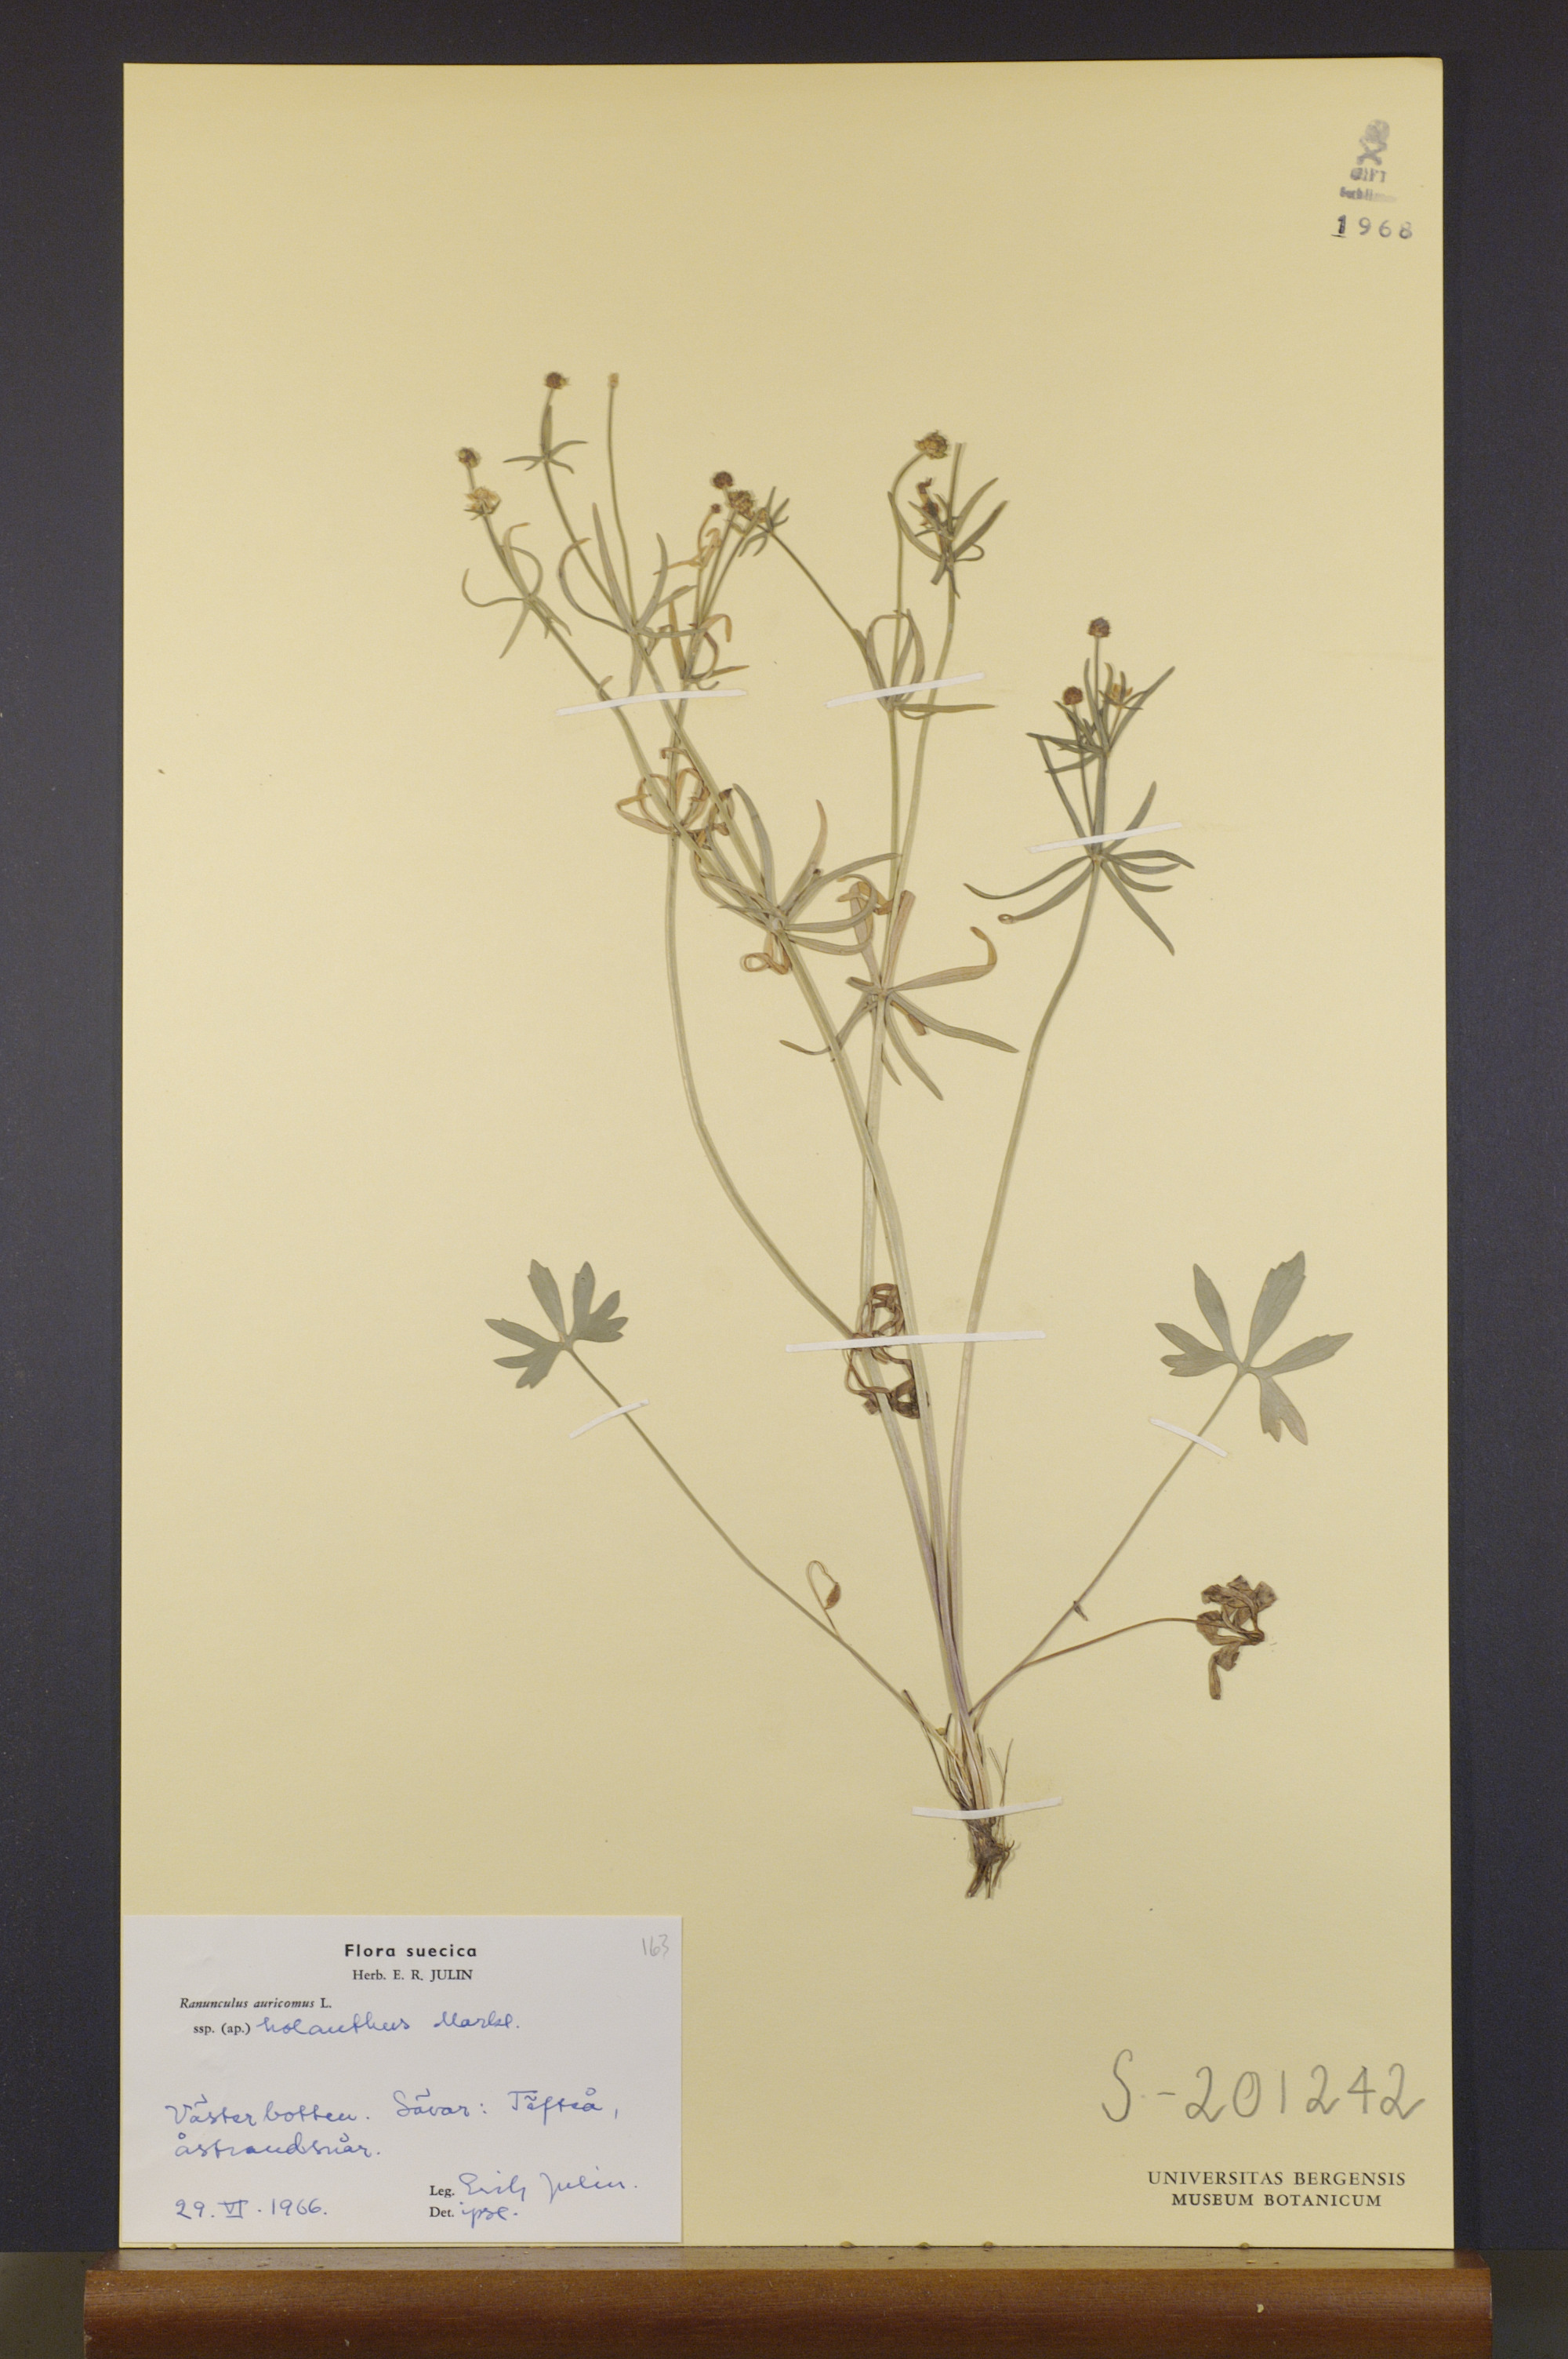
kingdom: Plantae
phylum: Tracheophyta
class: Magnoliopsida
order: Ranunculales
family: Ranunculaceae
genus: Ranunculus
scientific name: Ranunculus holanthus
